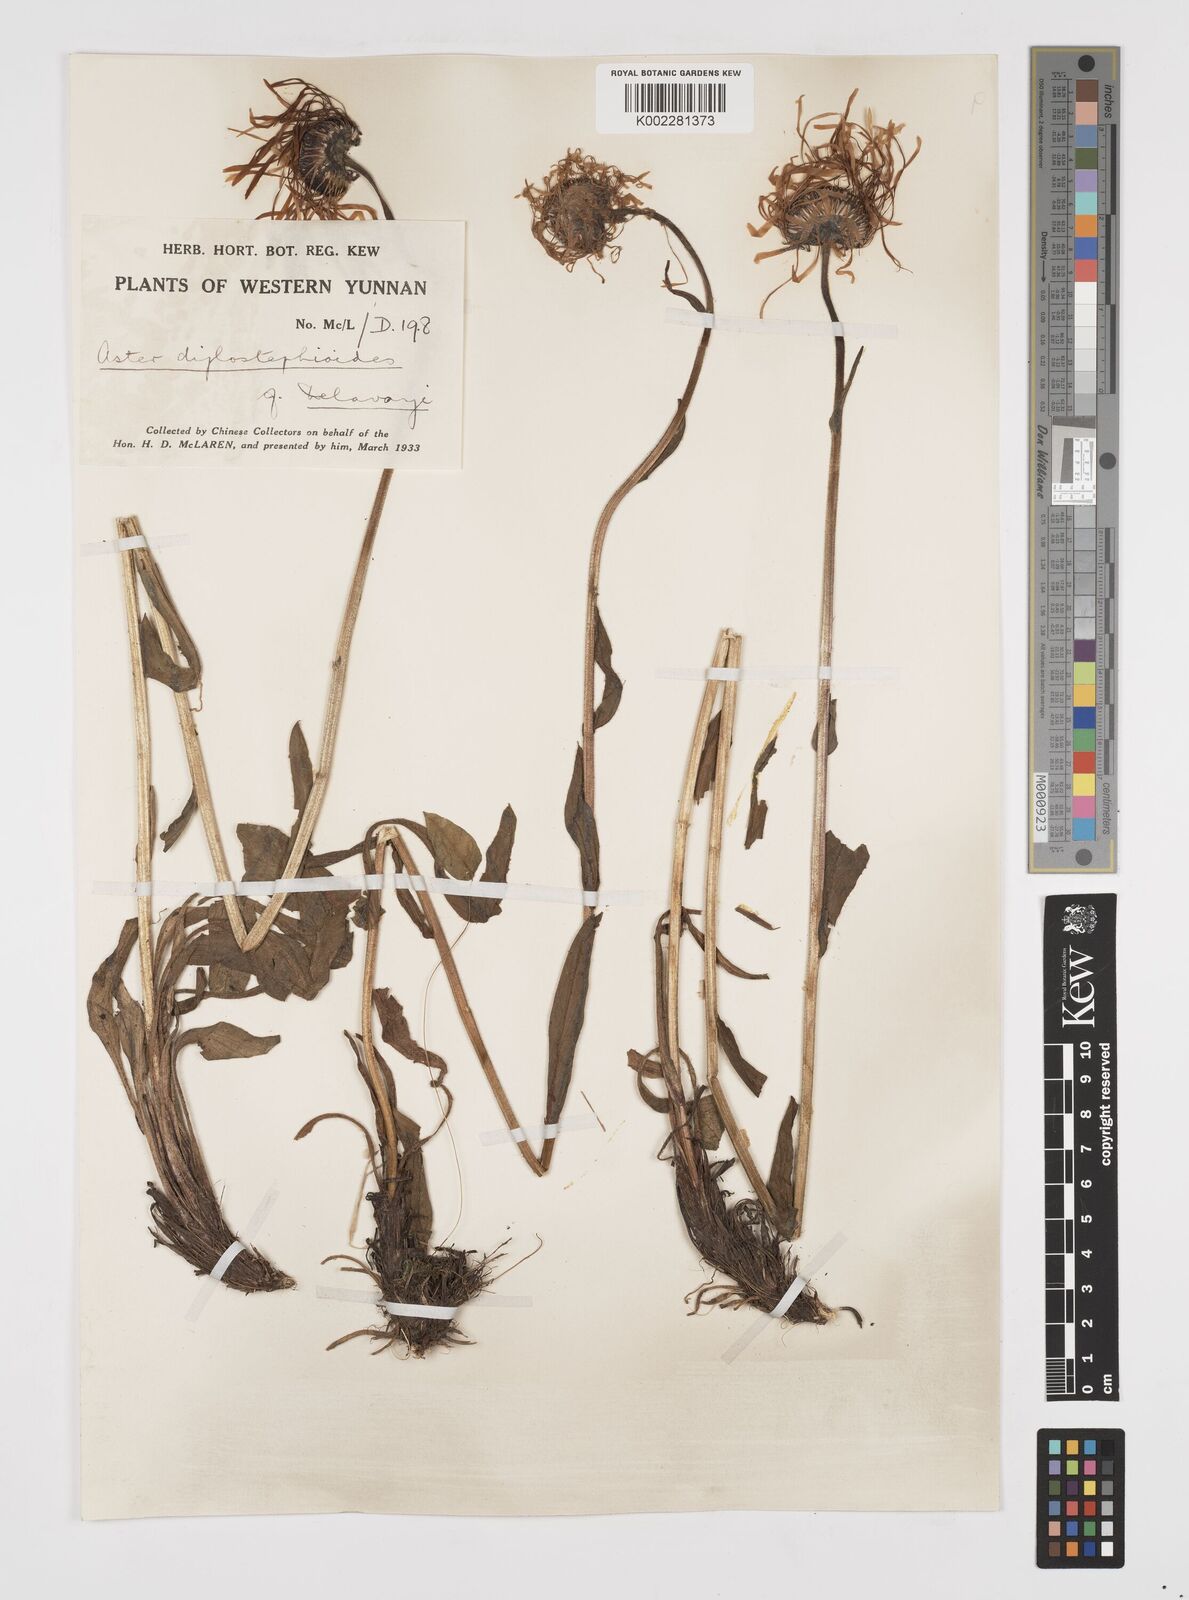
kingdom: Plantae
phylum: Tracheophyta
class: Magnoliopsida
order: Asterales
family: Asteraceae
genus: Tibetiodes
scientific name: Tibetiodes diplostephioides
